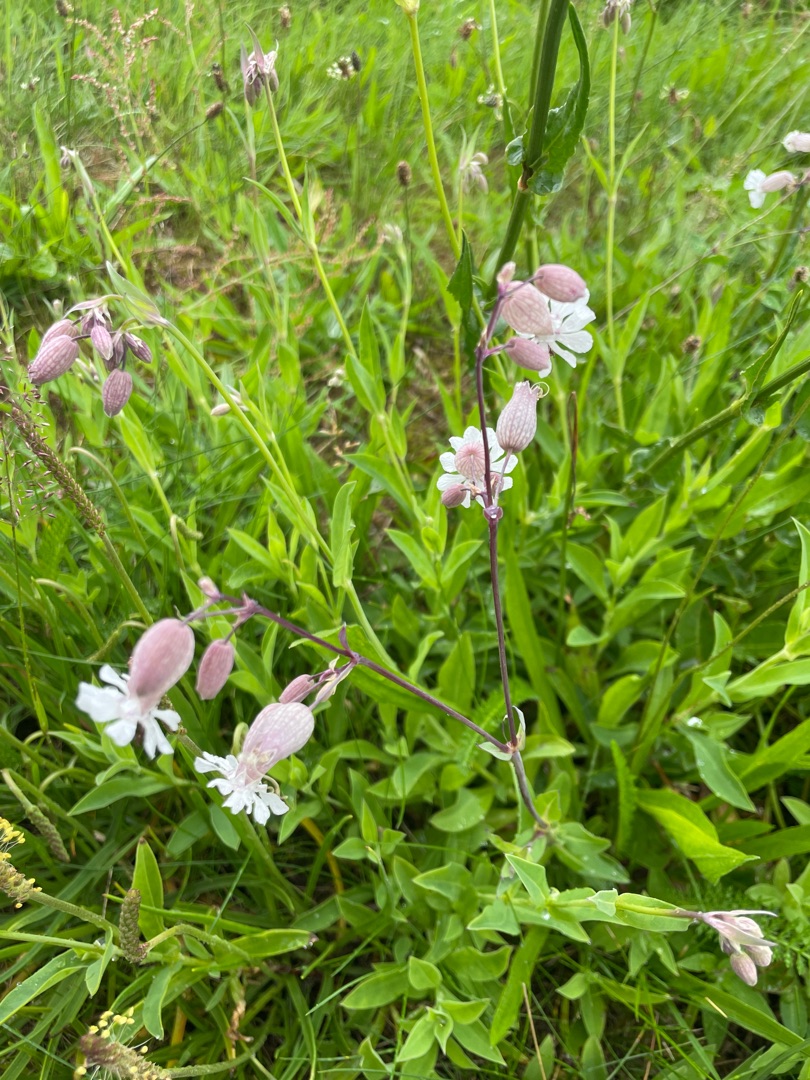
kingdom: Plantae
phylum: Tracheophyta
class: Magnoliopsida
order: Caryophyllales
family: Caryophyllaceae
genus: Silene
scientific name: Silene vulgaris
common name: Blæresmælde
